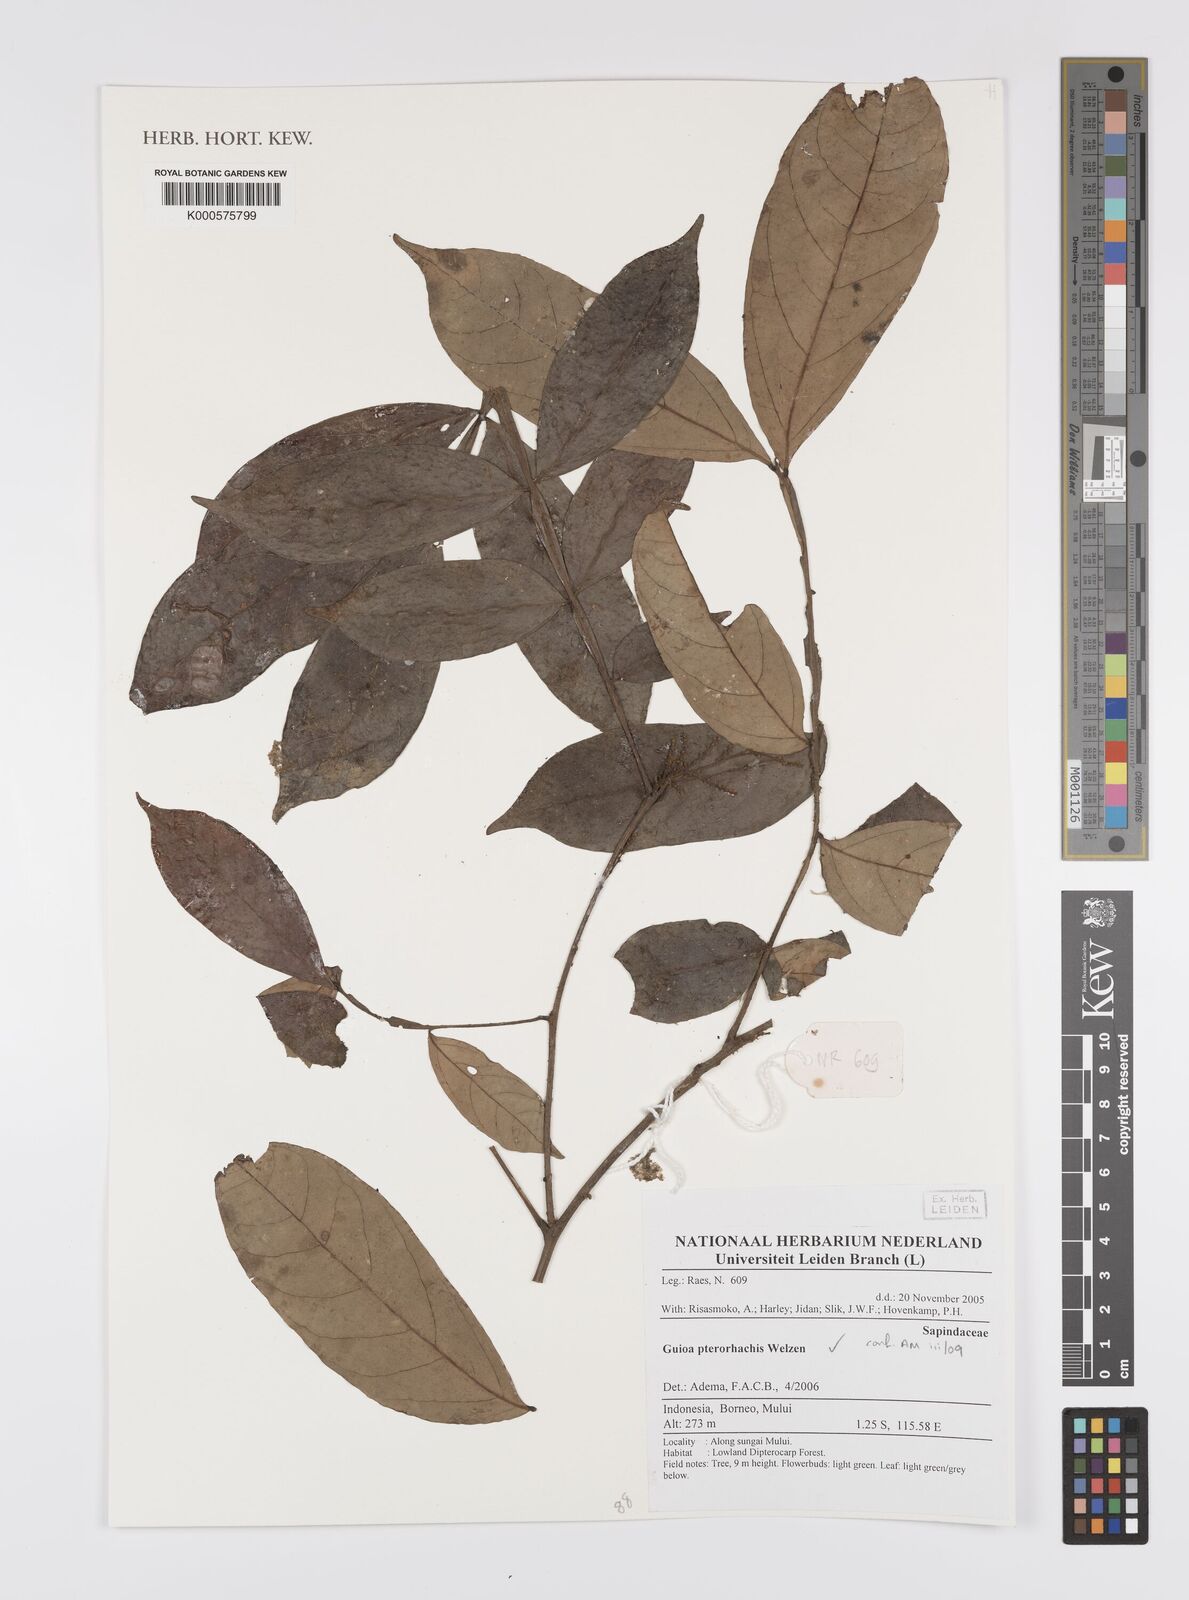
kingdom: Plantae
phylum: Tracheophyta
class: Magnoliopsida
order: Sapindales
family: Sapindaceae
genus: Guioa
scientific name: Guioa pterorhachis
